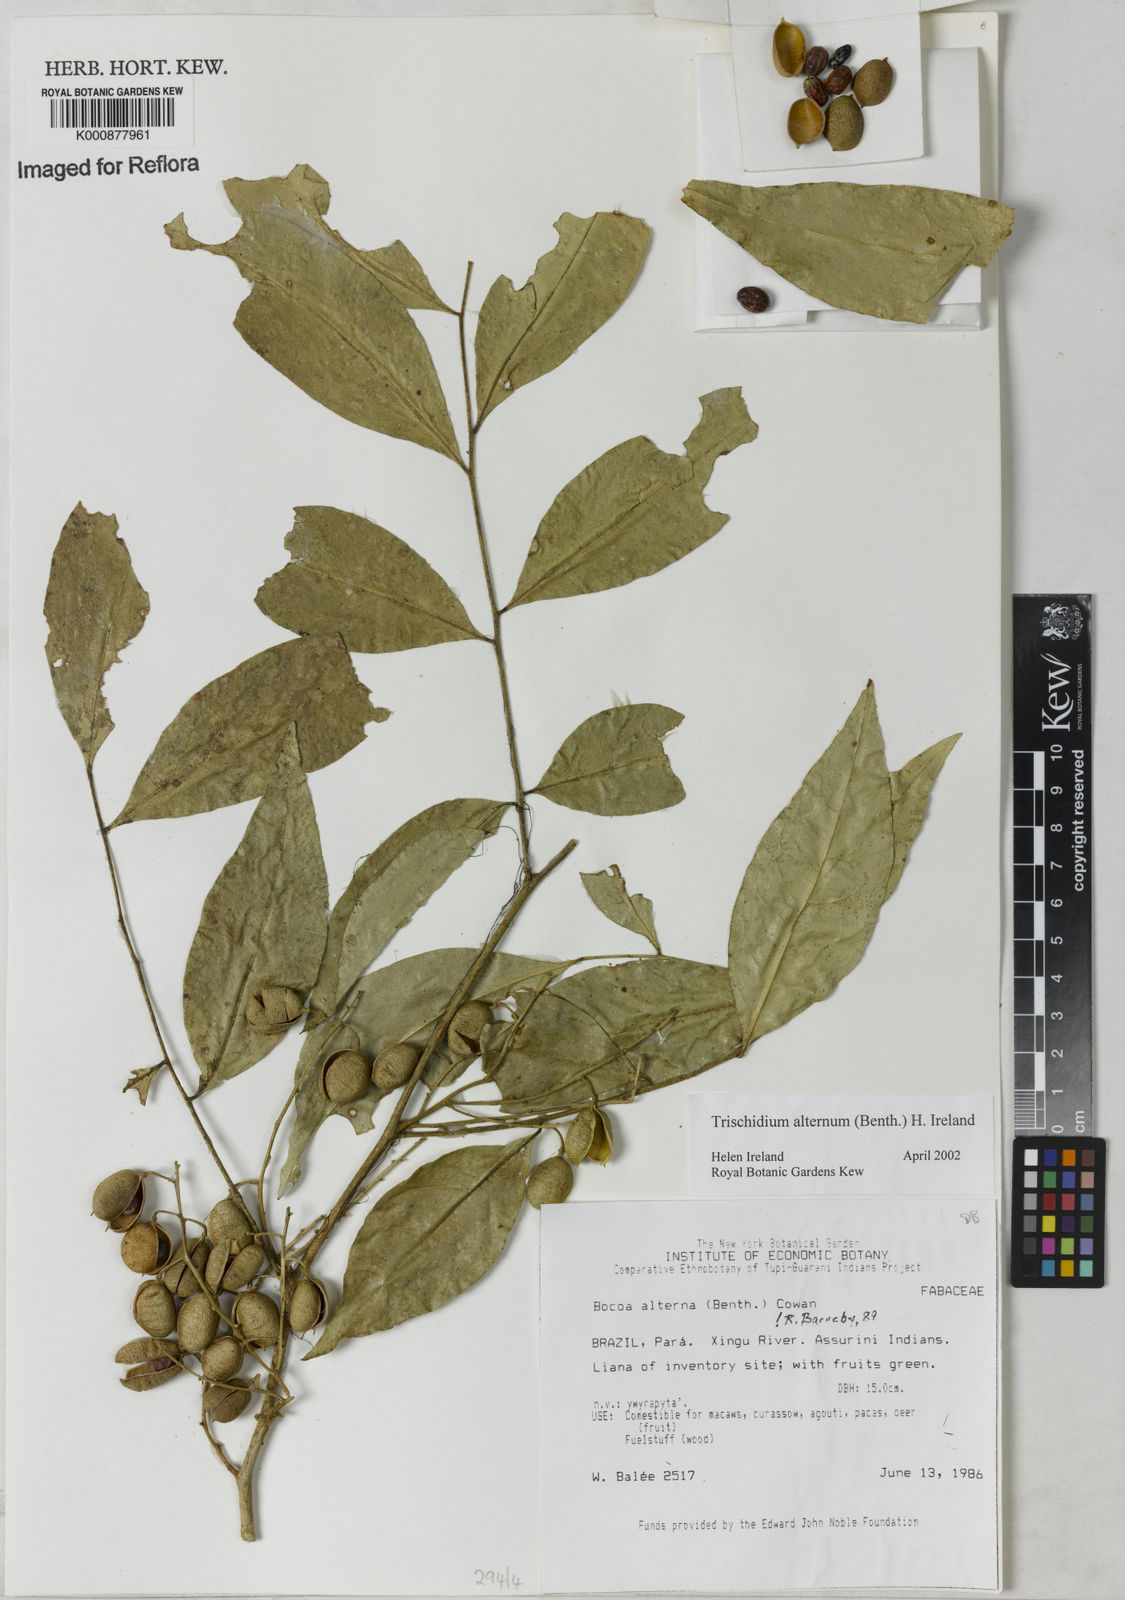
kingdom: Plantae
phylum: Tracheophyta
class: Magnoliopsida
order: Fabales
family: Fabaceae
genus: Trischidium
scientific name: Trischidium alternum
